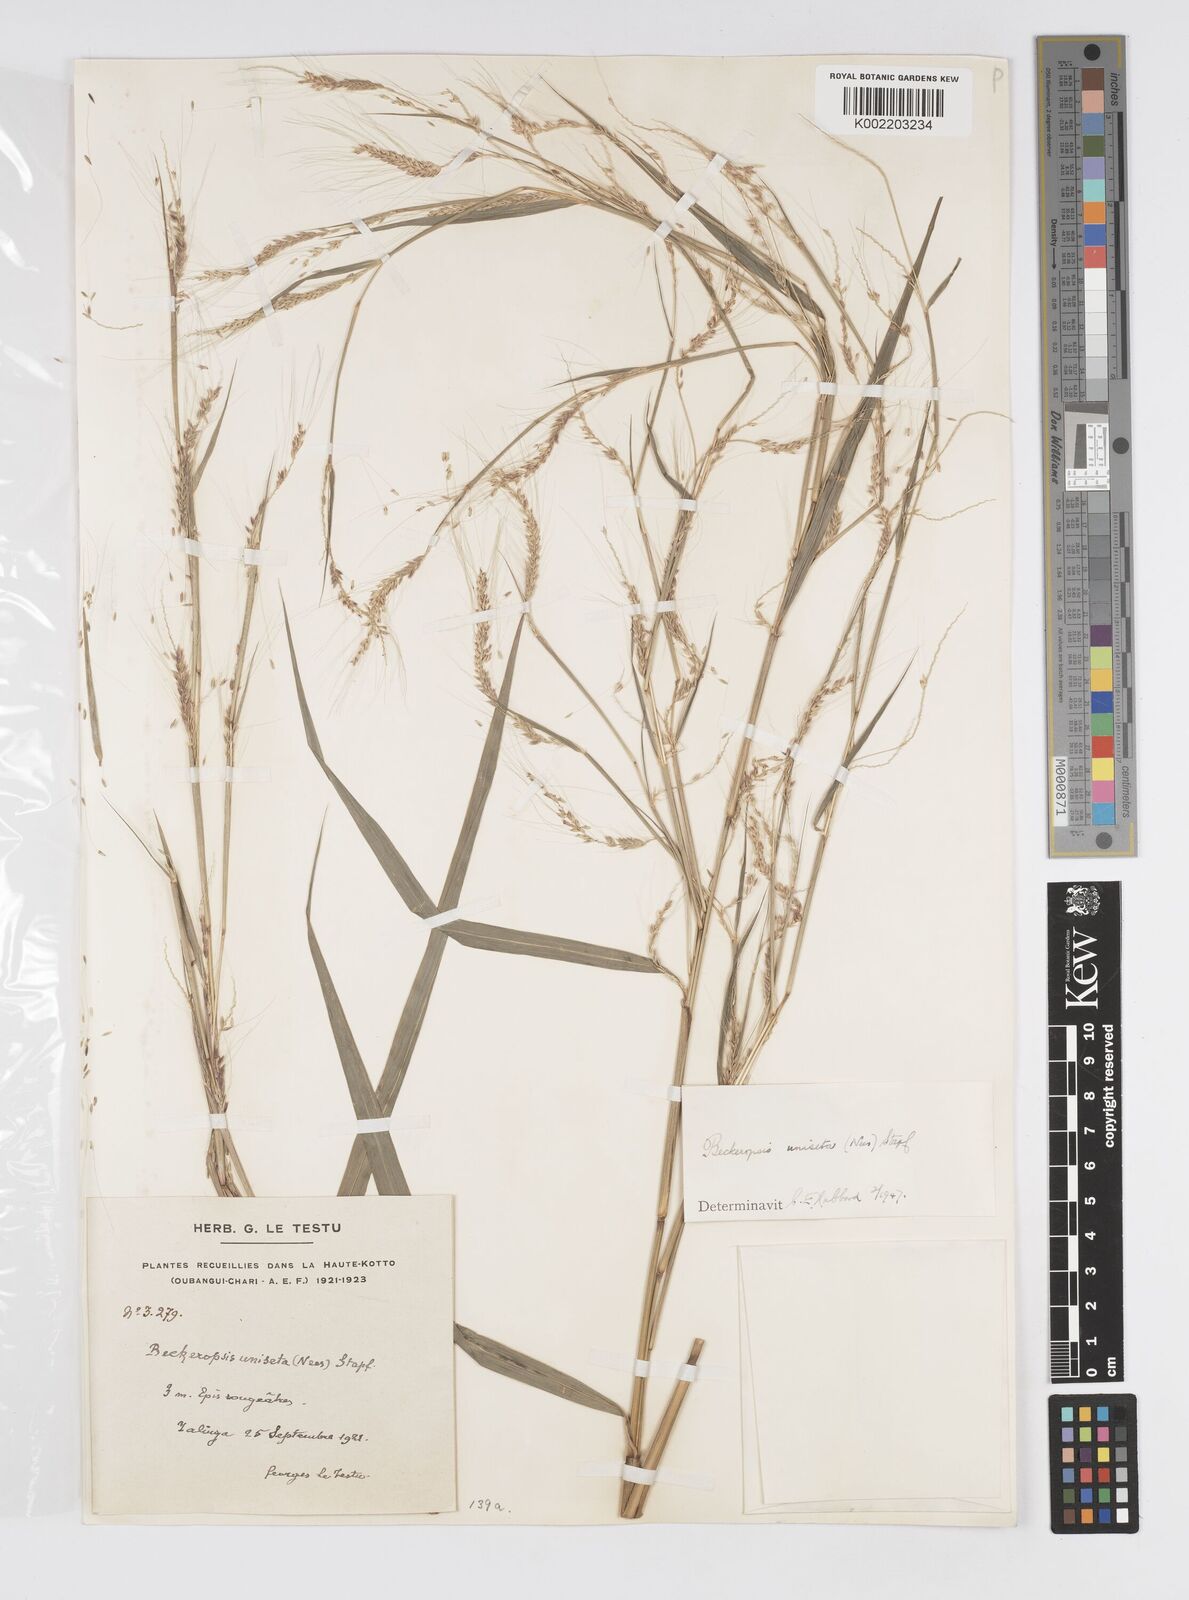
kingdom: Plantae
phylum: Tracheophyta
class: Liliopsida
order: Poales
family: Poaceae
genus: Cenchrus
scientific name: Cenchrus unisetus
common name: Natal grass
